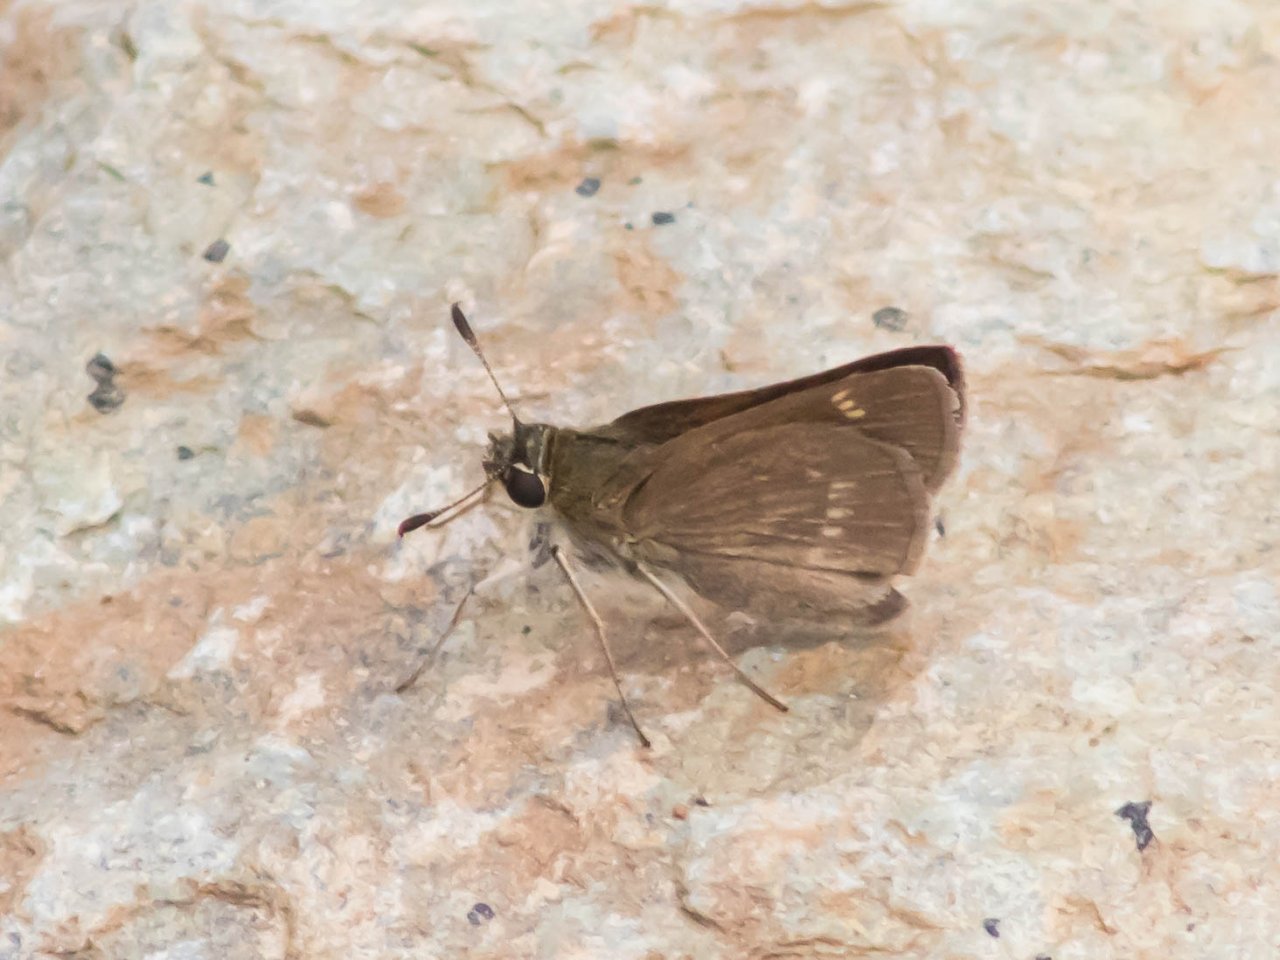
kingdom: Animalia
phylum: Arthropoda
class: Insecta
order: Lepidoptera
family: Hesperiidae
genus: Vernia
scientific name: Vernia verna
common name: Little Glassywing
